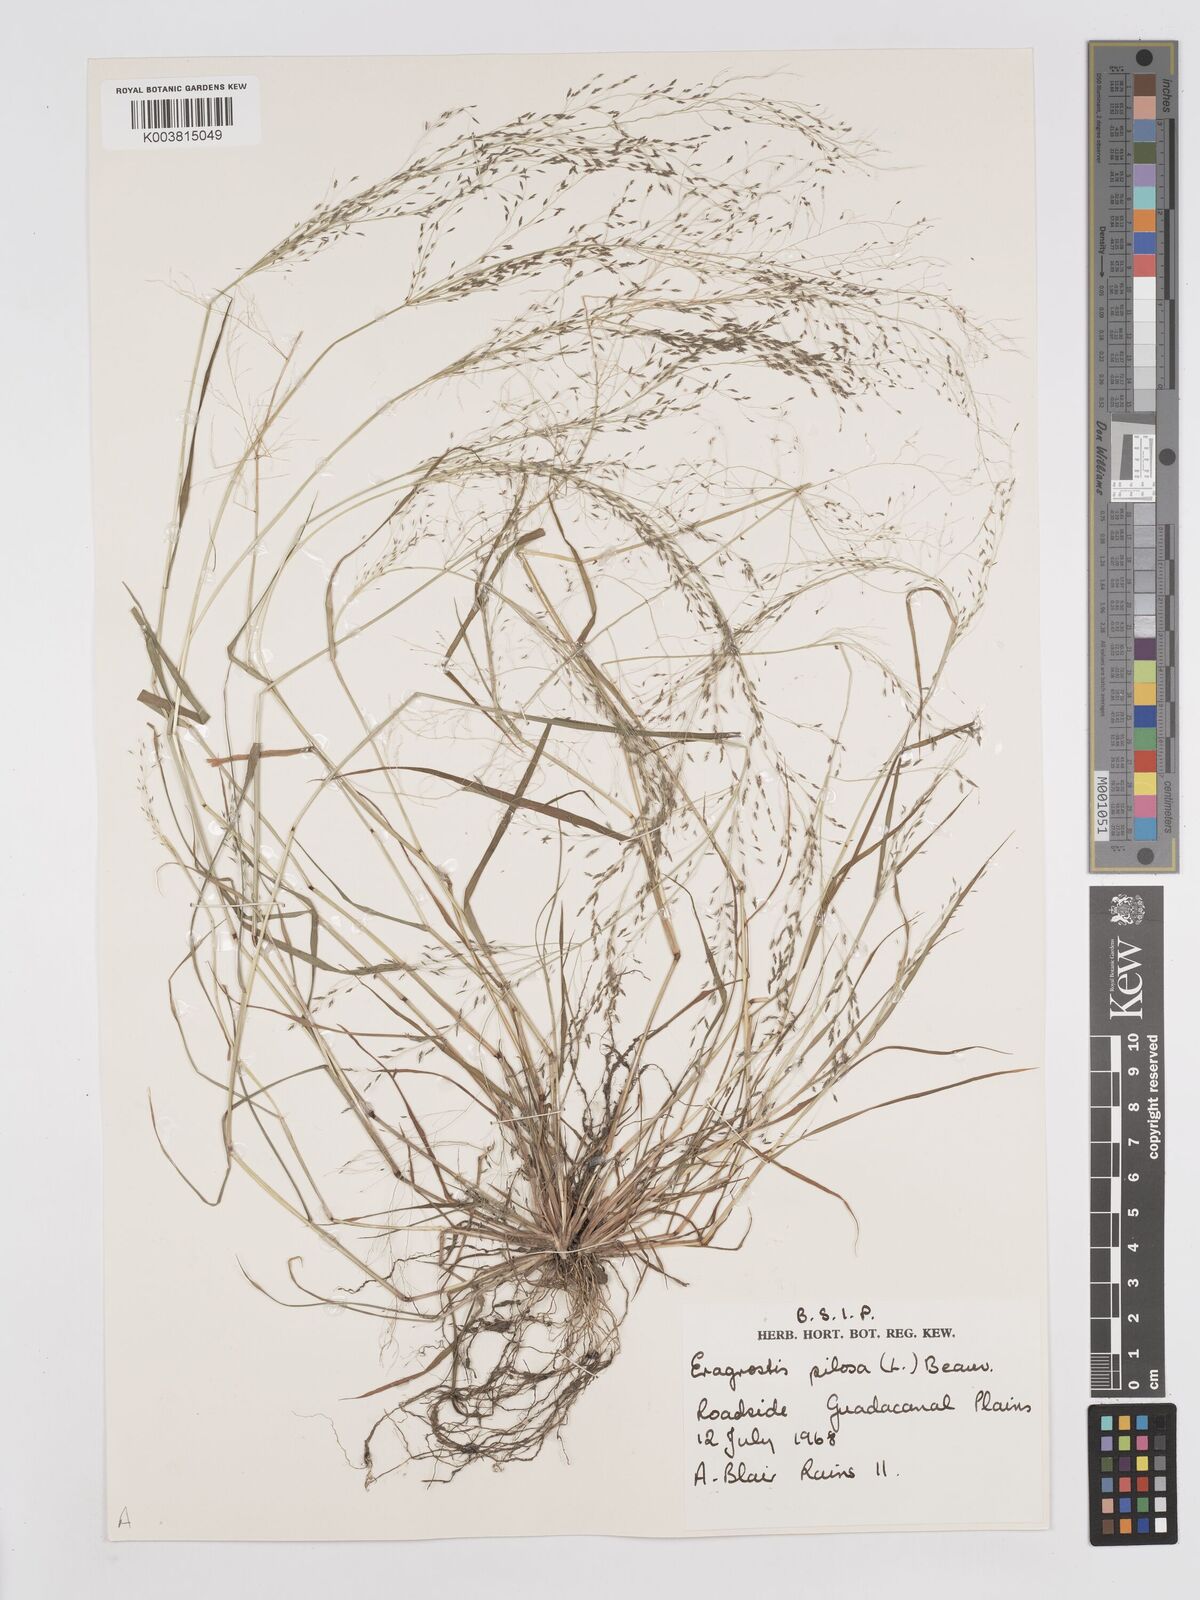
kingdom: Plantae
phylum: Tracheophyta
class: Liliopsida
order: Poales
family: Poaceae
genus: Eragrostis
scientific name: Eragrostis pilosa
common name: Indian lovegrass
